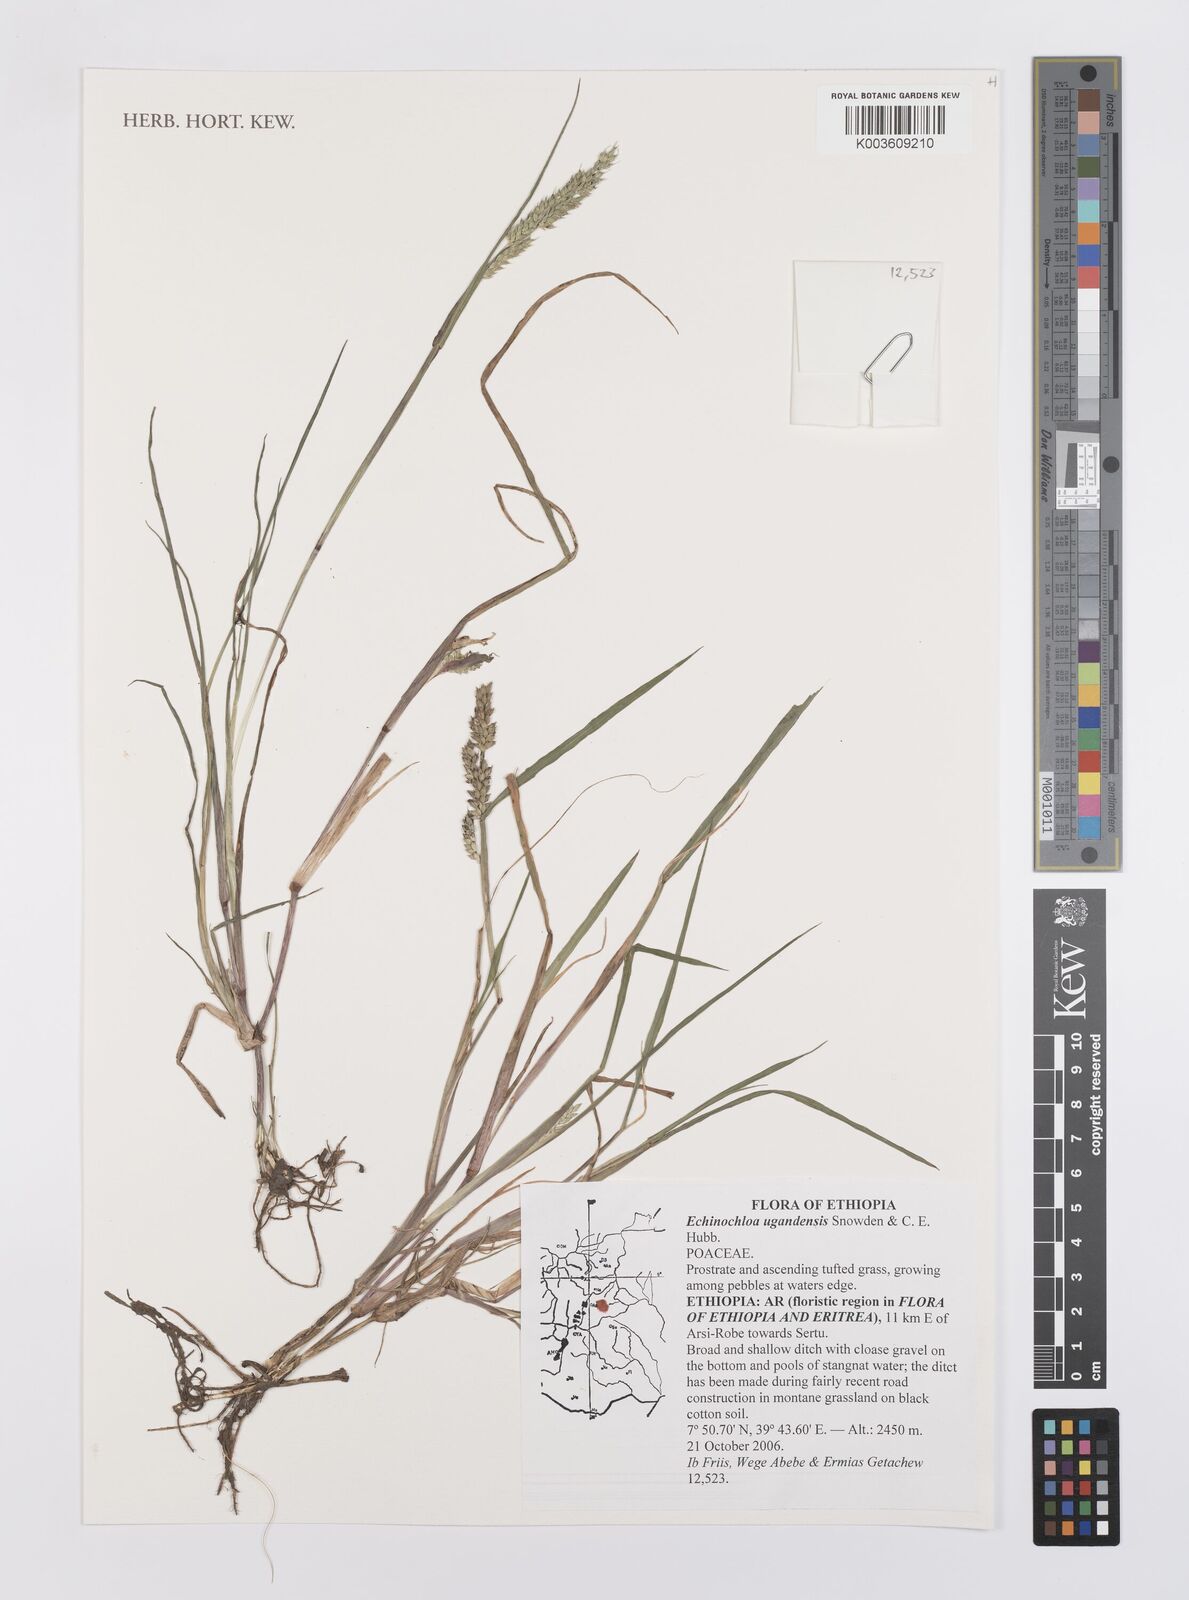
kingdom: Plantae
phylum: Tracheophyta
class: Liliopsida
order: Poales
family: Poaceae
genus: Echinochloa
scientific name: Echinochloa ugandensis
